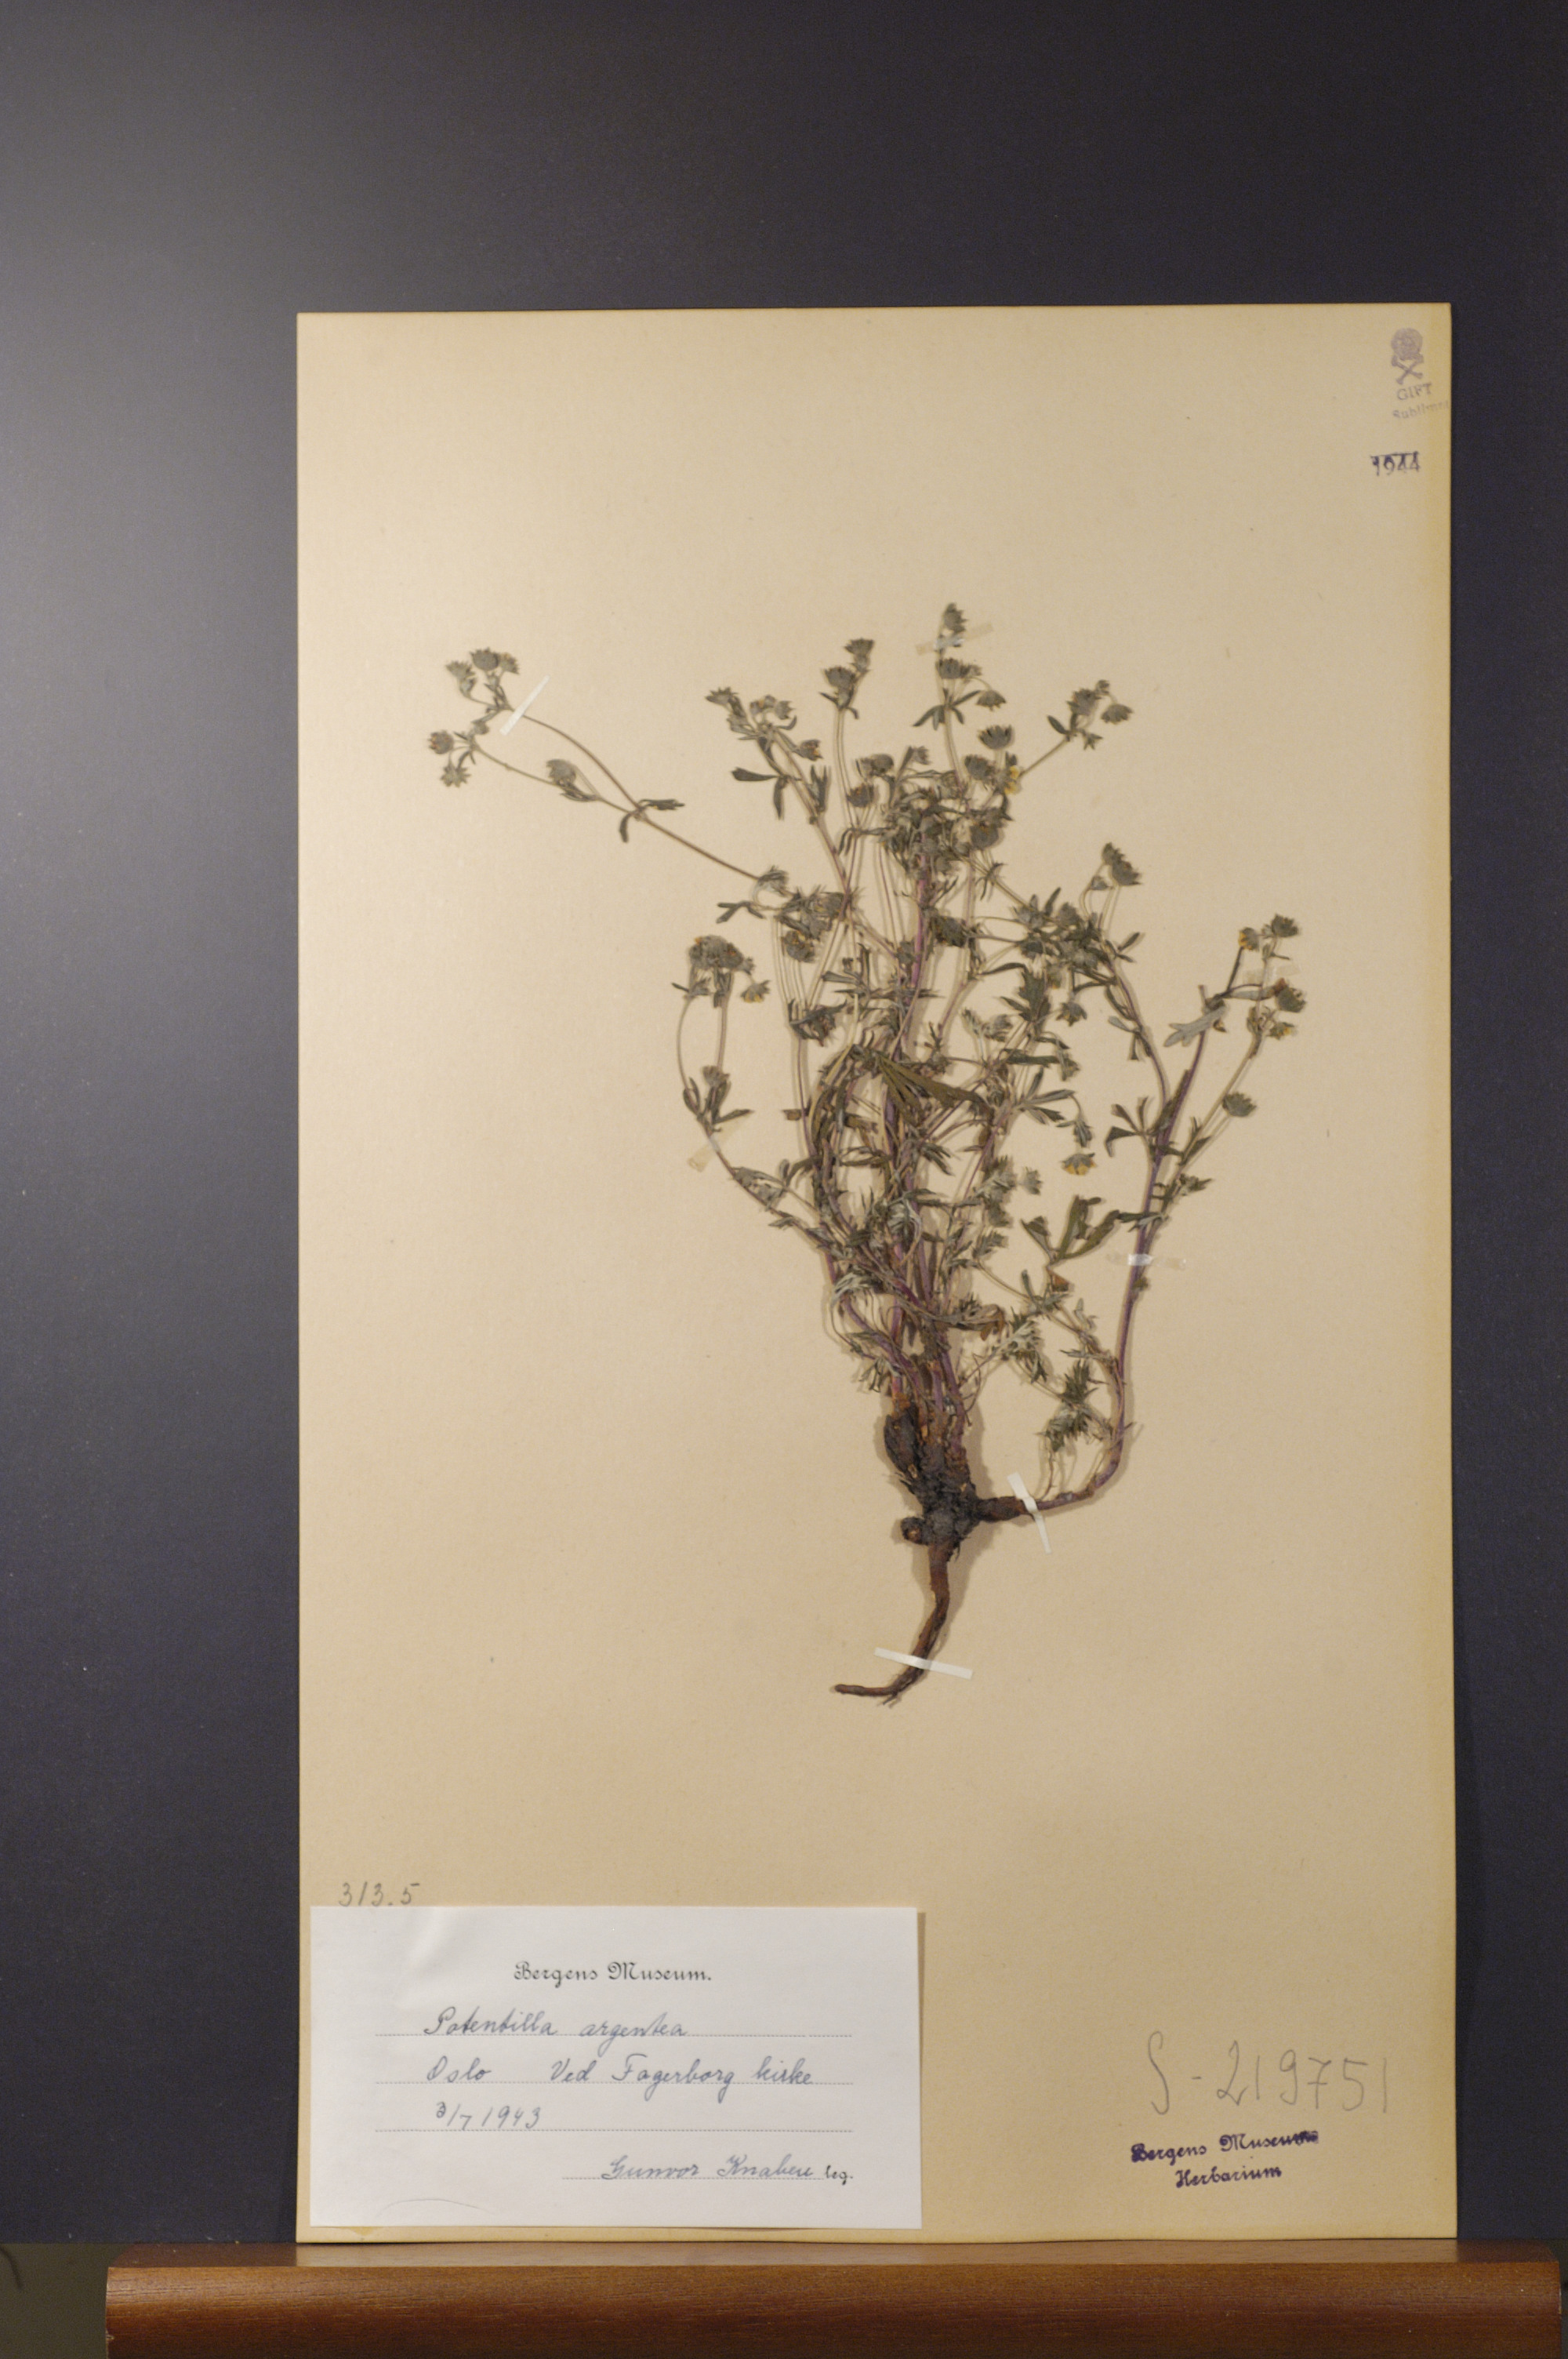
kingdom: Plantae
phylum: Tracheophyta
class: Magnoliopsida
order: Rosales
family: Rosaceae
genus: Potentilla
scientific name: Potentilla argentea
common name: Hoary cinquefoil
